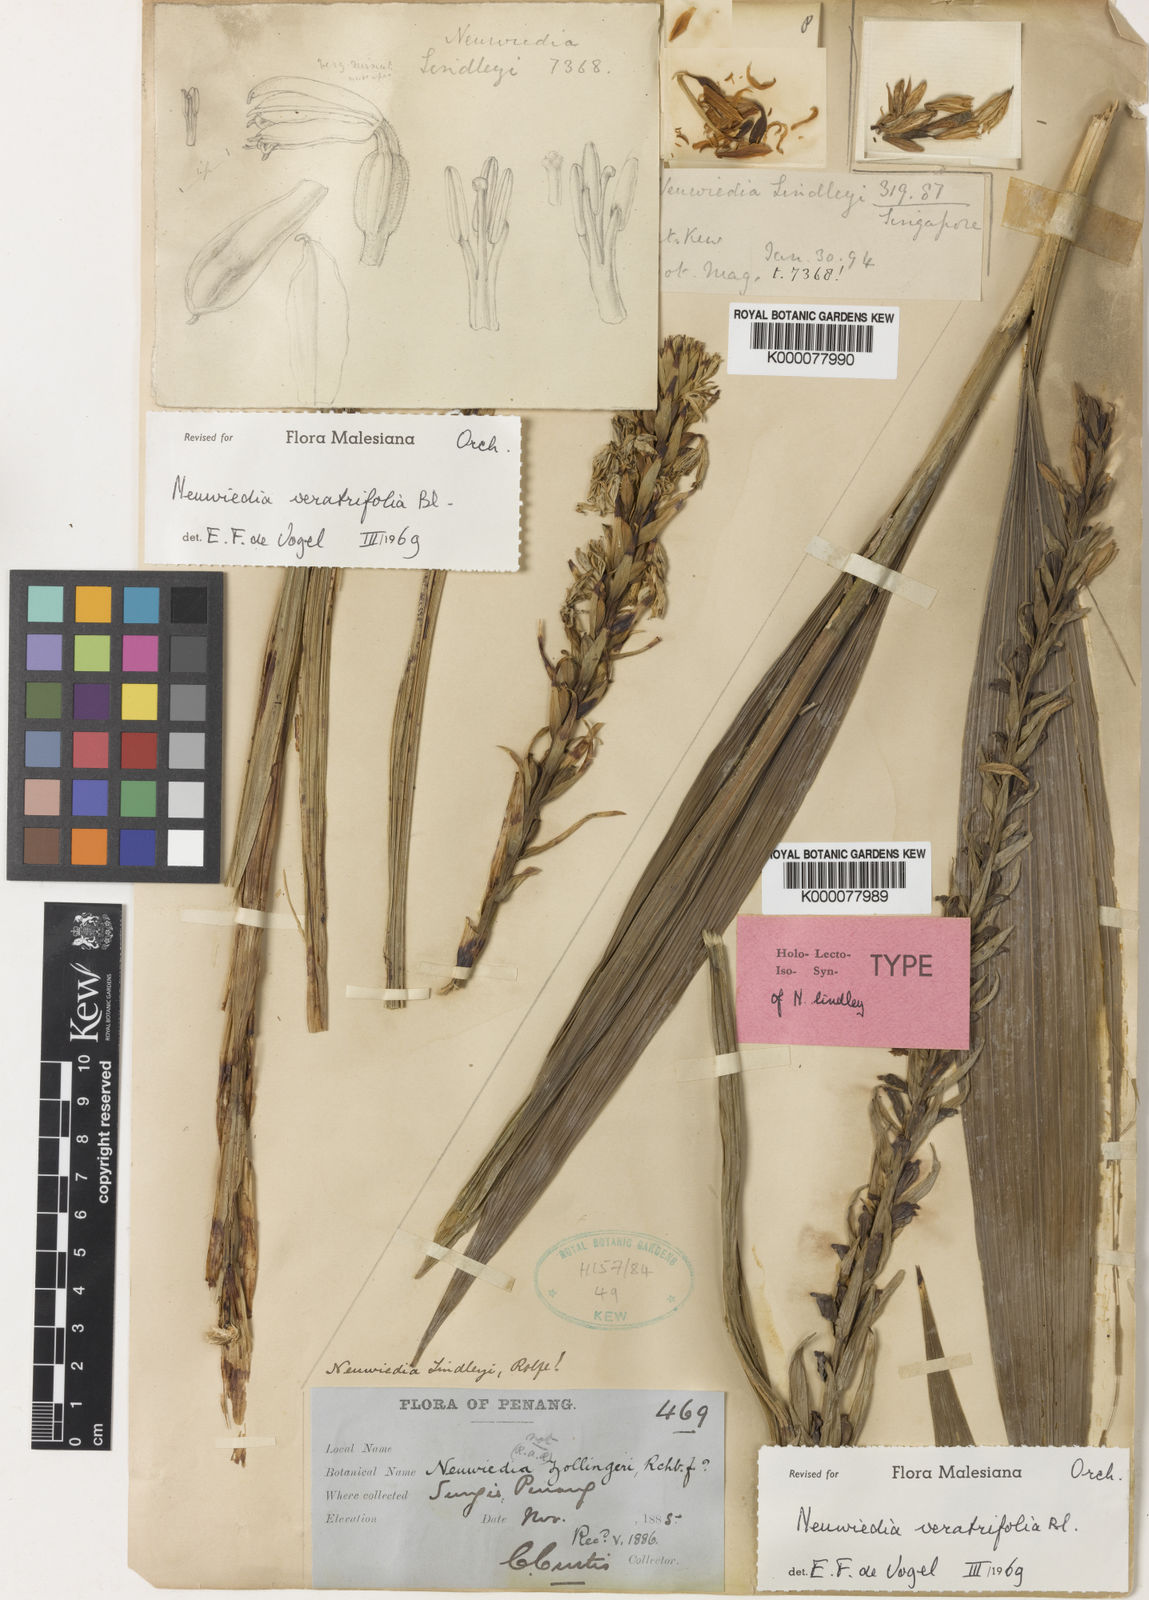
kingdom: Plantae
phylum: Tracheophyta
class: Liliopsida
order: Asparagales
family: Orchidaceae
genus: Neuwiedia
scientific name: Neuwiedia veratrifolia
